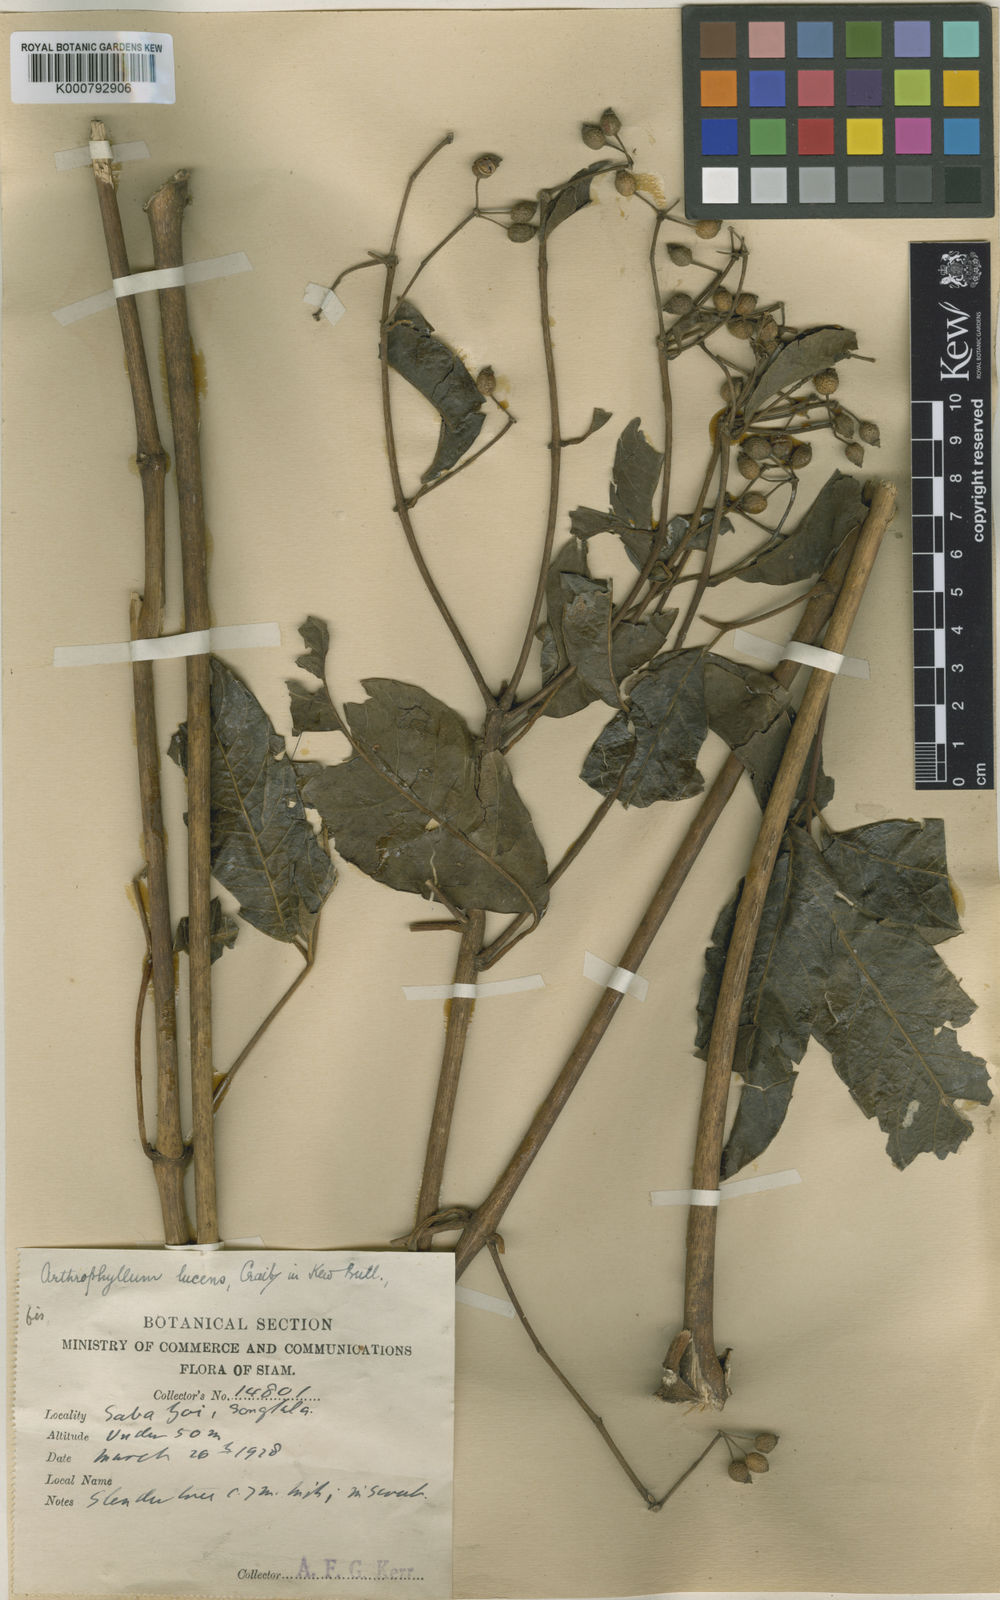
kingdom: Plantae
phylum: Tracheophyta
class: Magnoliopsida
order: Apiales
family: Araliaceae
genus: Polyscias
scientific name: Polyscias meliifolia
